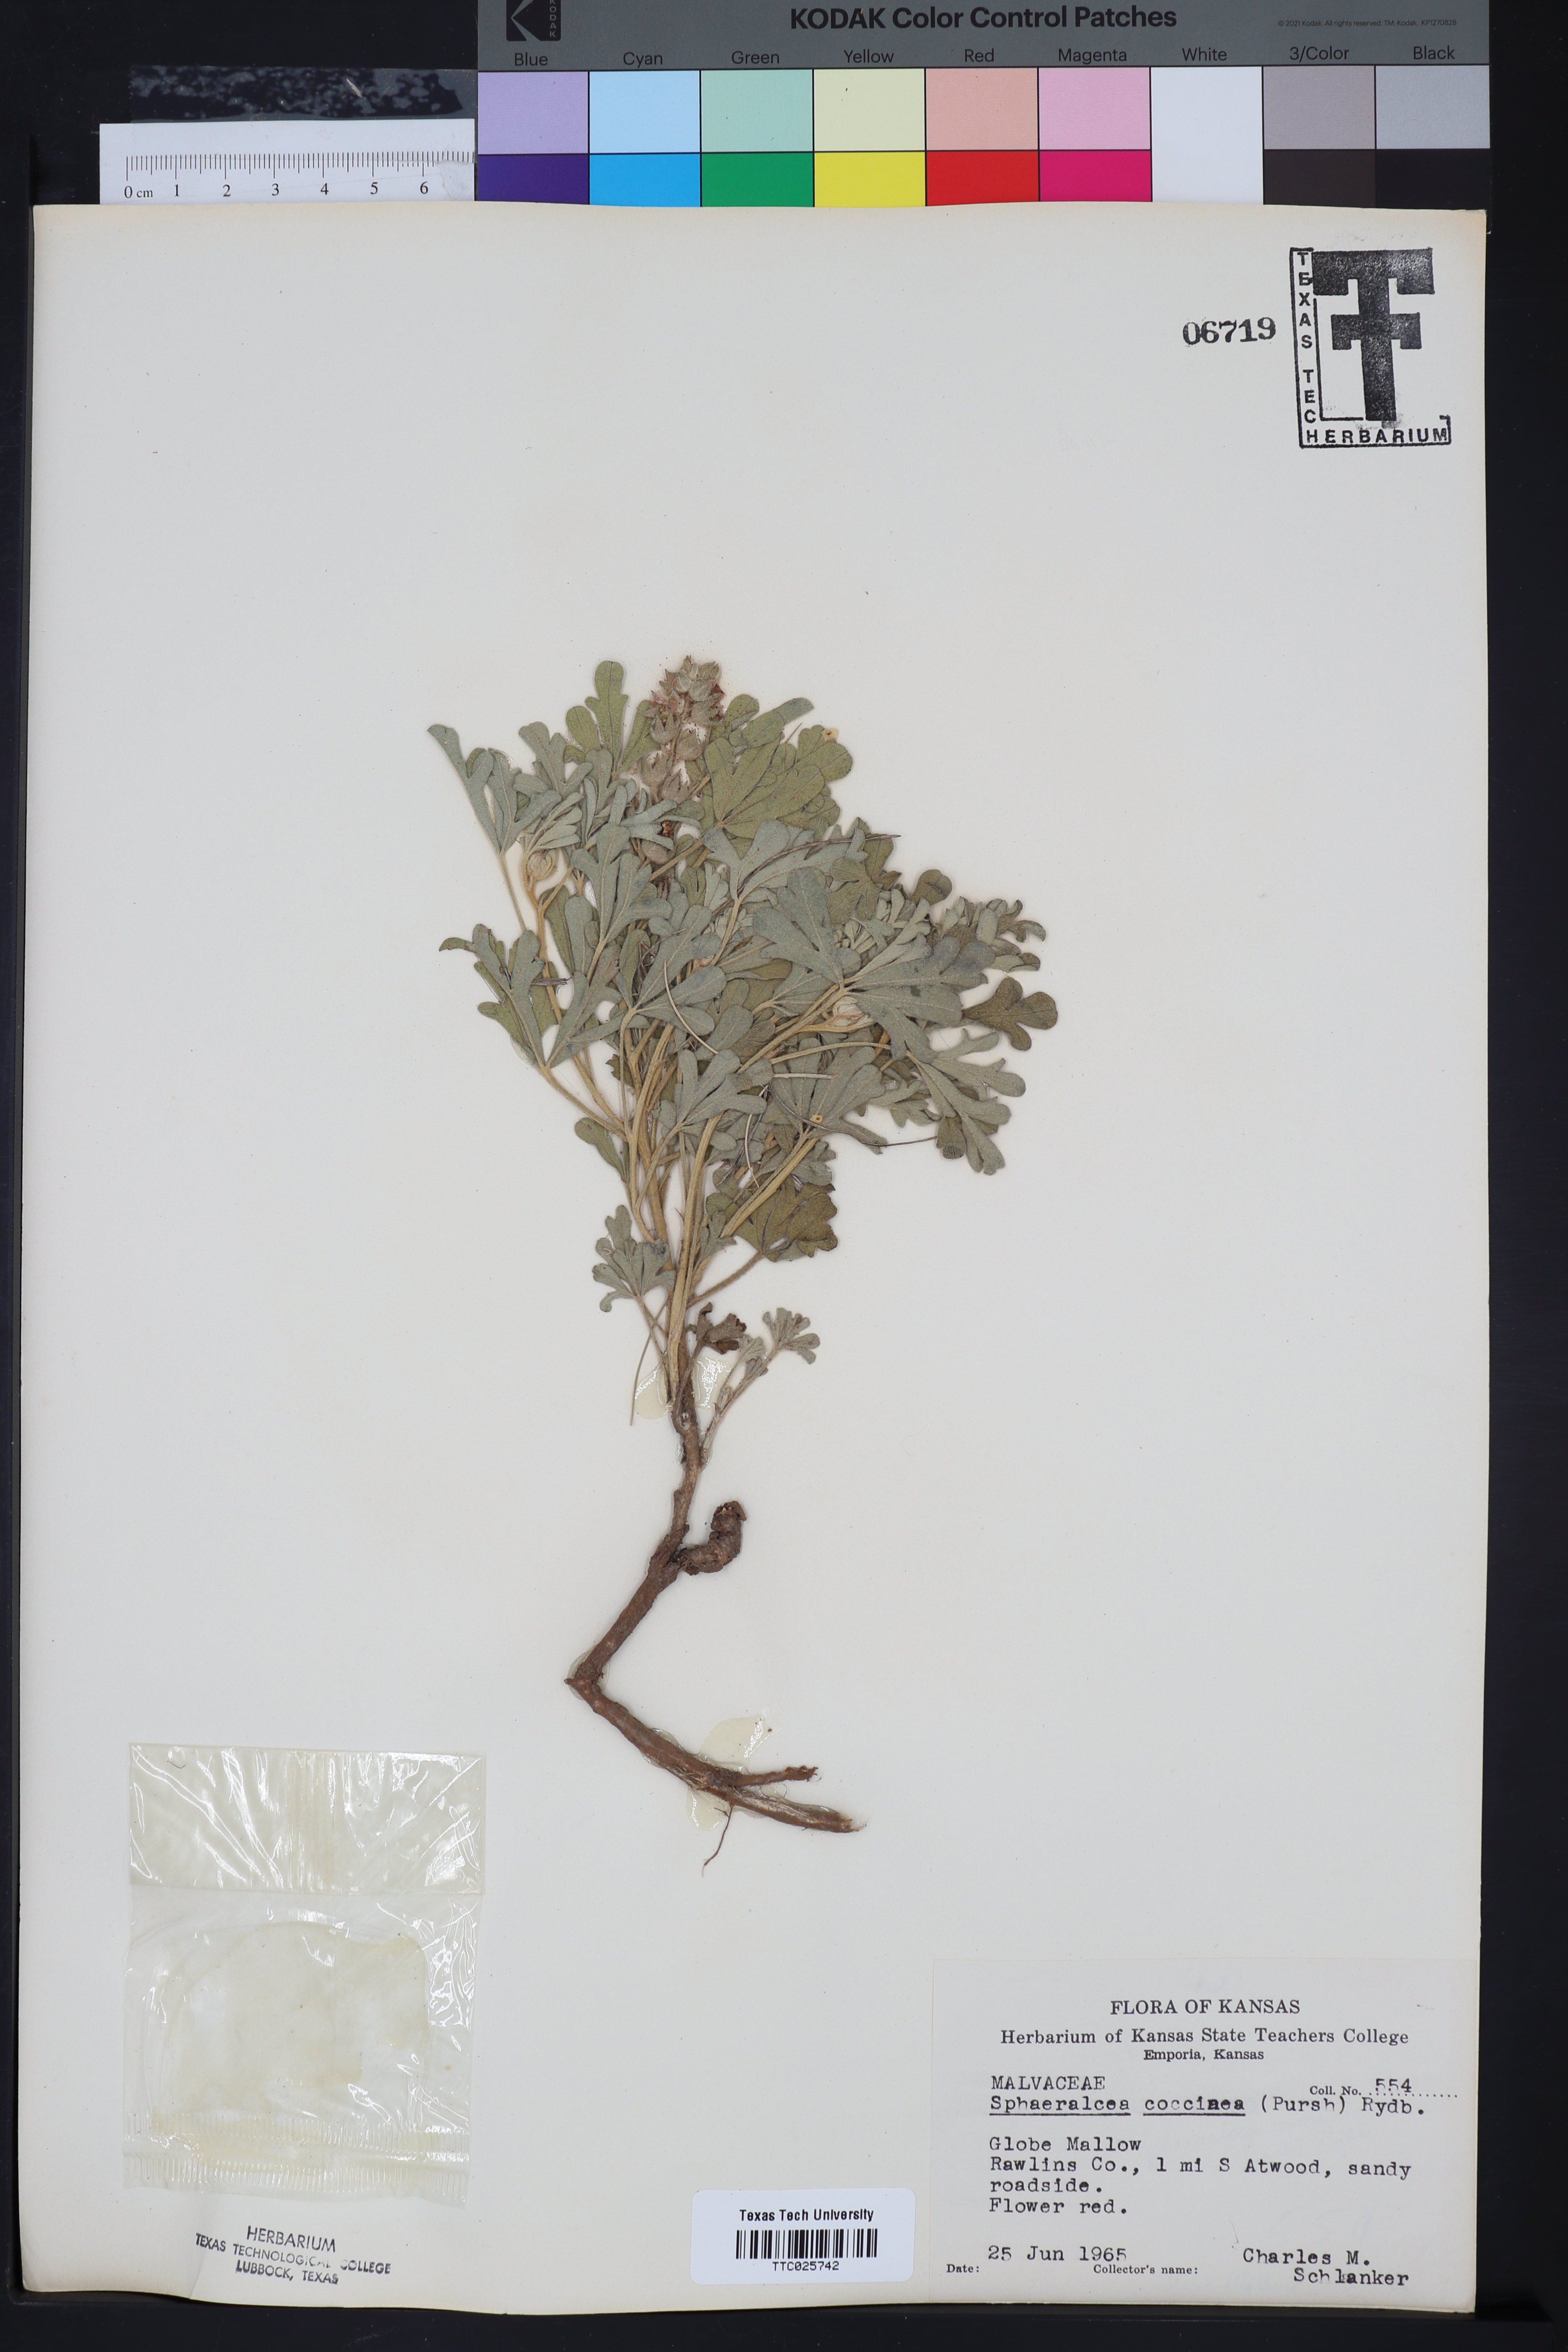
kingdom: Plantae
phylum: Tracheophyta
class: Magnoliopsida
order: Malvales
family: Malvaceae
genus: Sphaeralcea
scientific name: Sphaeralcea coccinea
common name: Moss-rose
